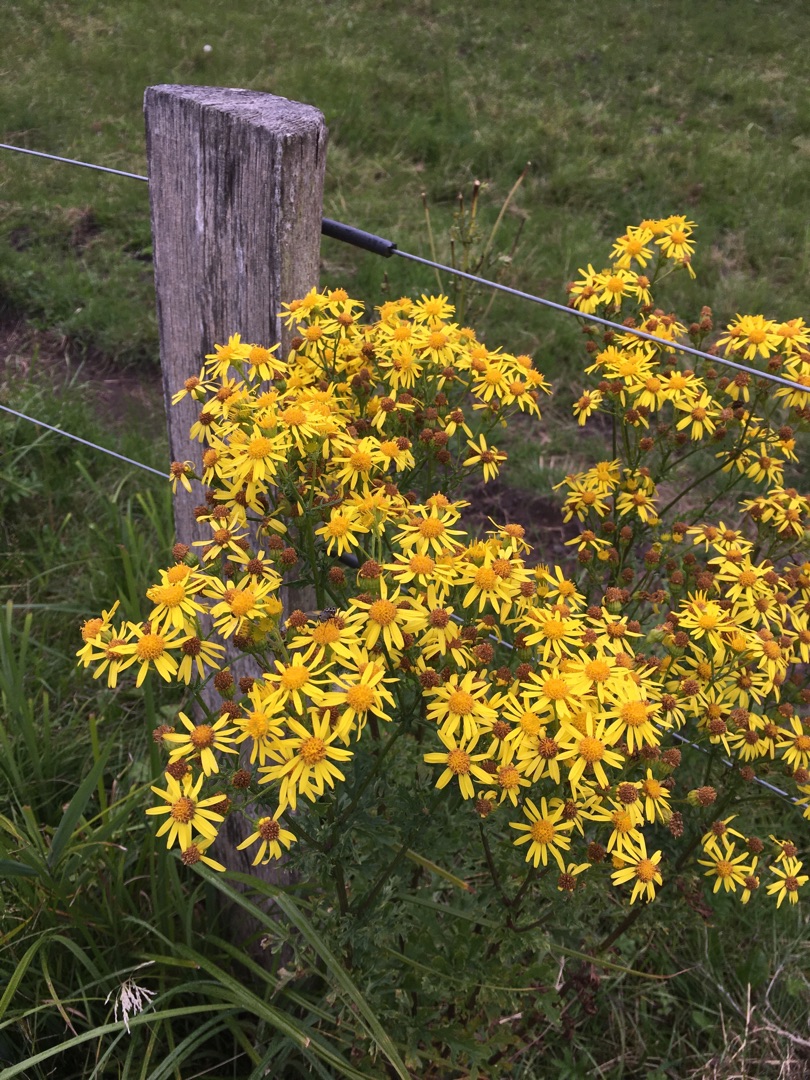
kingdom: Plantae
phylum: Tracheophyta
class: Magnoliopsida
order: Asterales
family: Asteraceae
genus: Jacobaea
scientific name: Jacobaea vulgaris
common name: Eng-brandbæger
